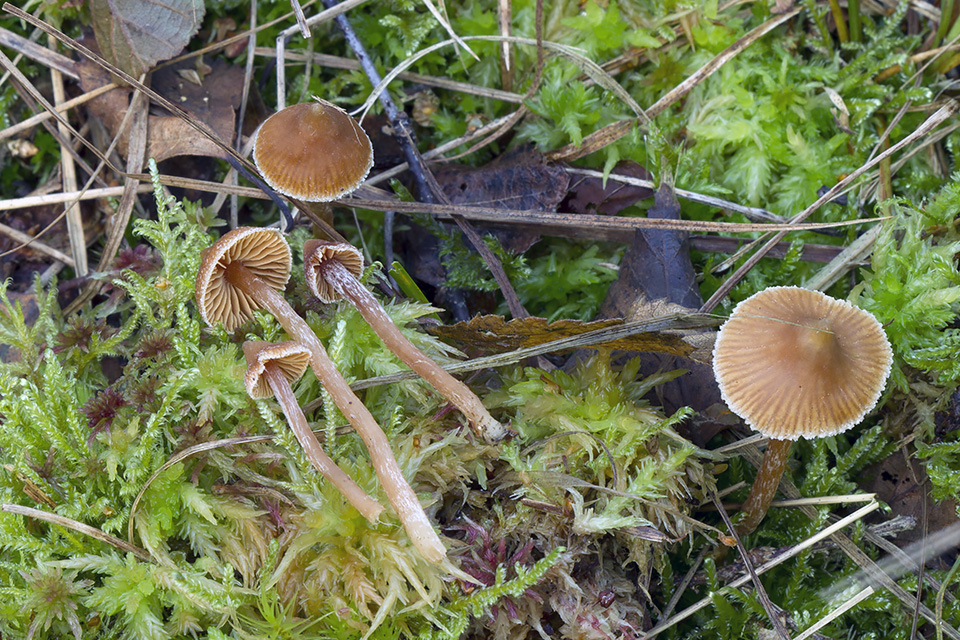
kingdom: Fungi
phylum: Basidiomycota
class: Agaricomycetes
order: Agaricales
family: Cortinariaceae
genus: Cortinarius
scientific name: Cortinarius acutus
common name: spids slørhat
